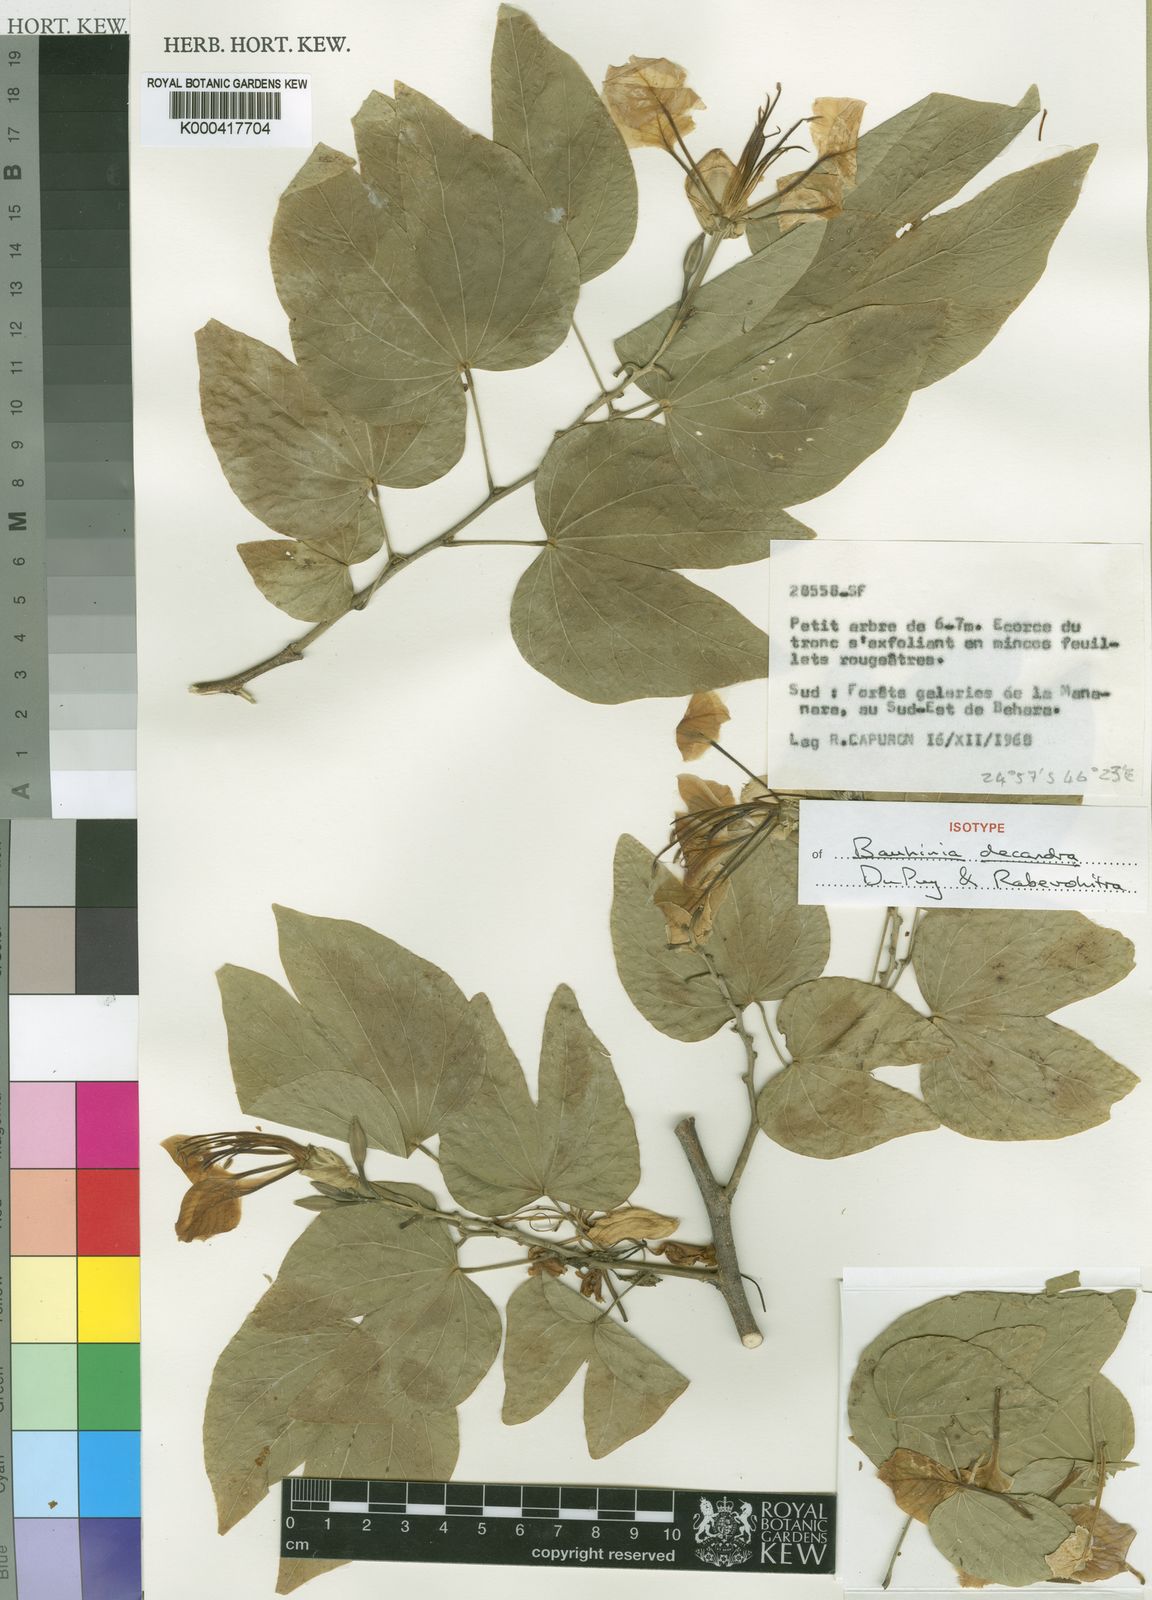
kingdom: Plantae
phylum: Tracheophyta
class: Magnoliopsida
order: Fabales
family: Fabaceae
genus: Bauhinia
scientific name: Bauhinia decandra
